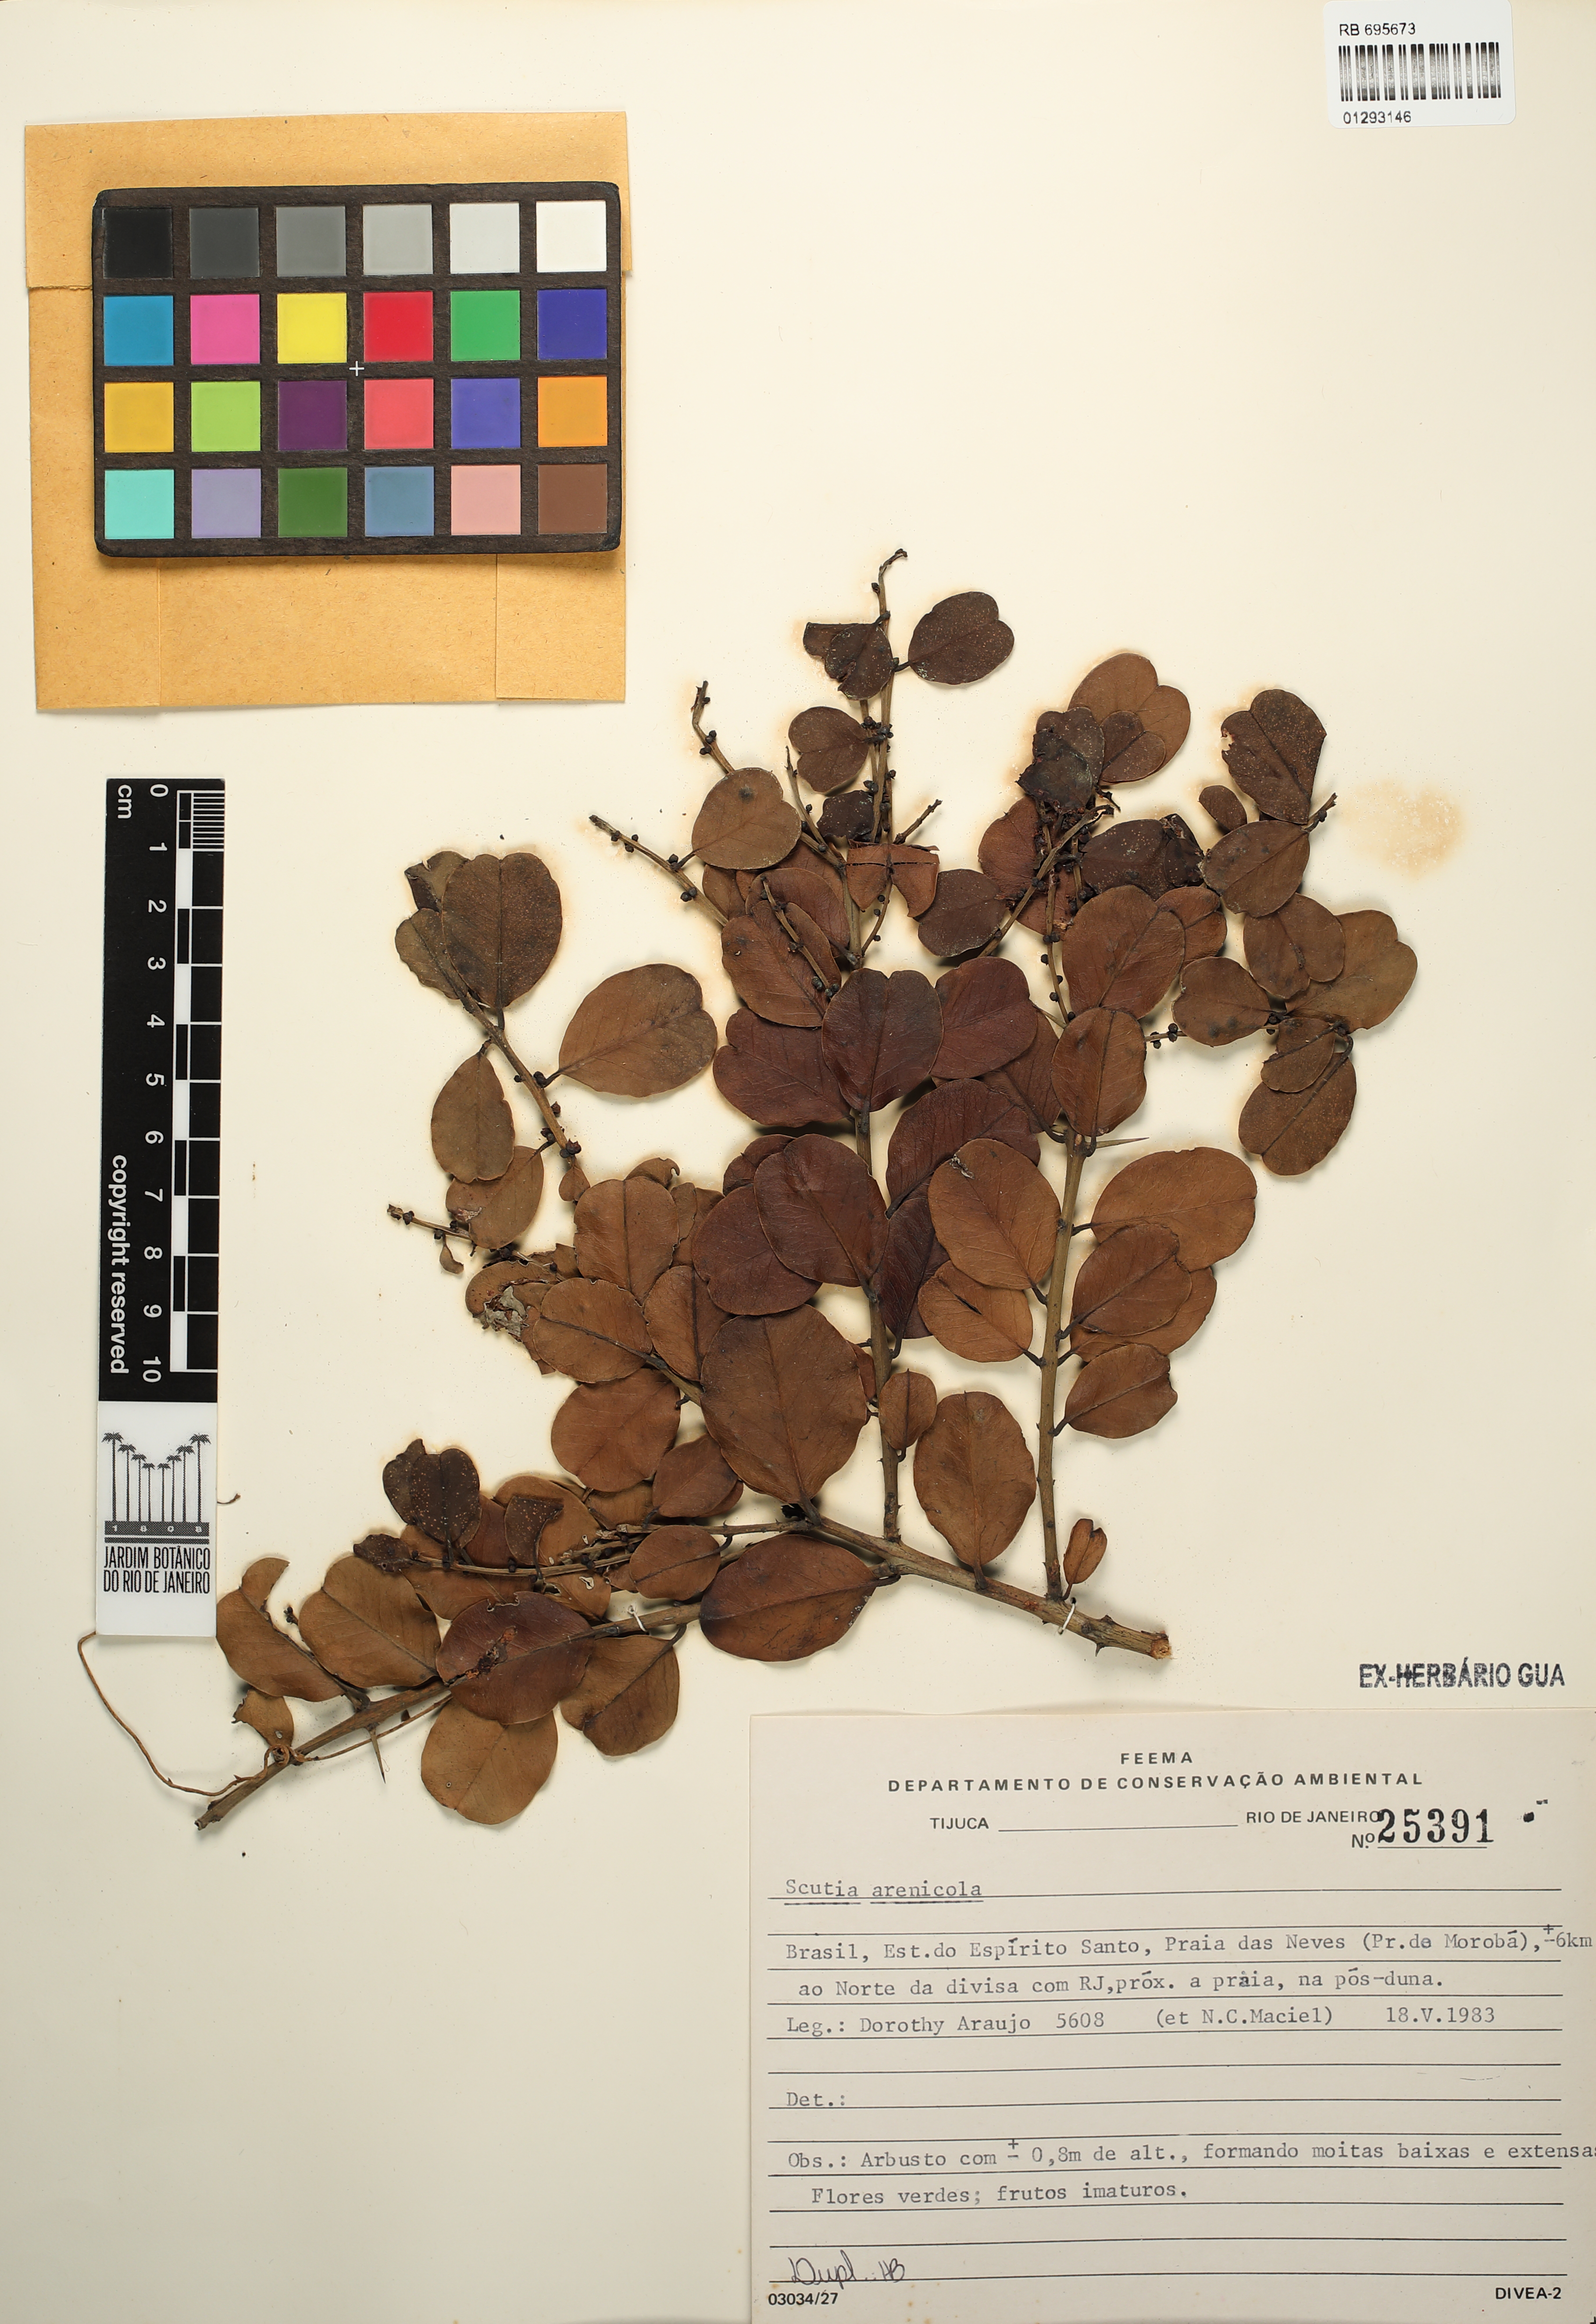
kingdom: Plantae
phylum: Tracheophyta
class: Magnoliopsida
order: Rosales
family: Rhamnaceae
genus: Scutia
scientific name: Scutia arenicola
